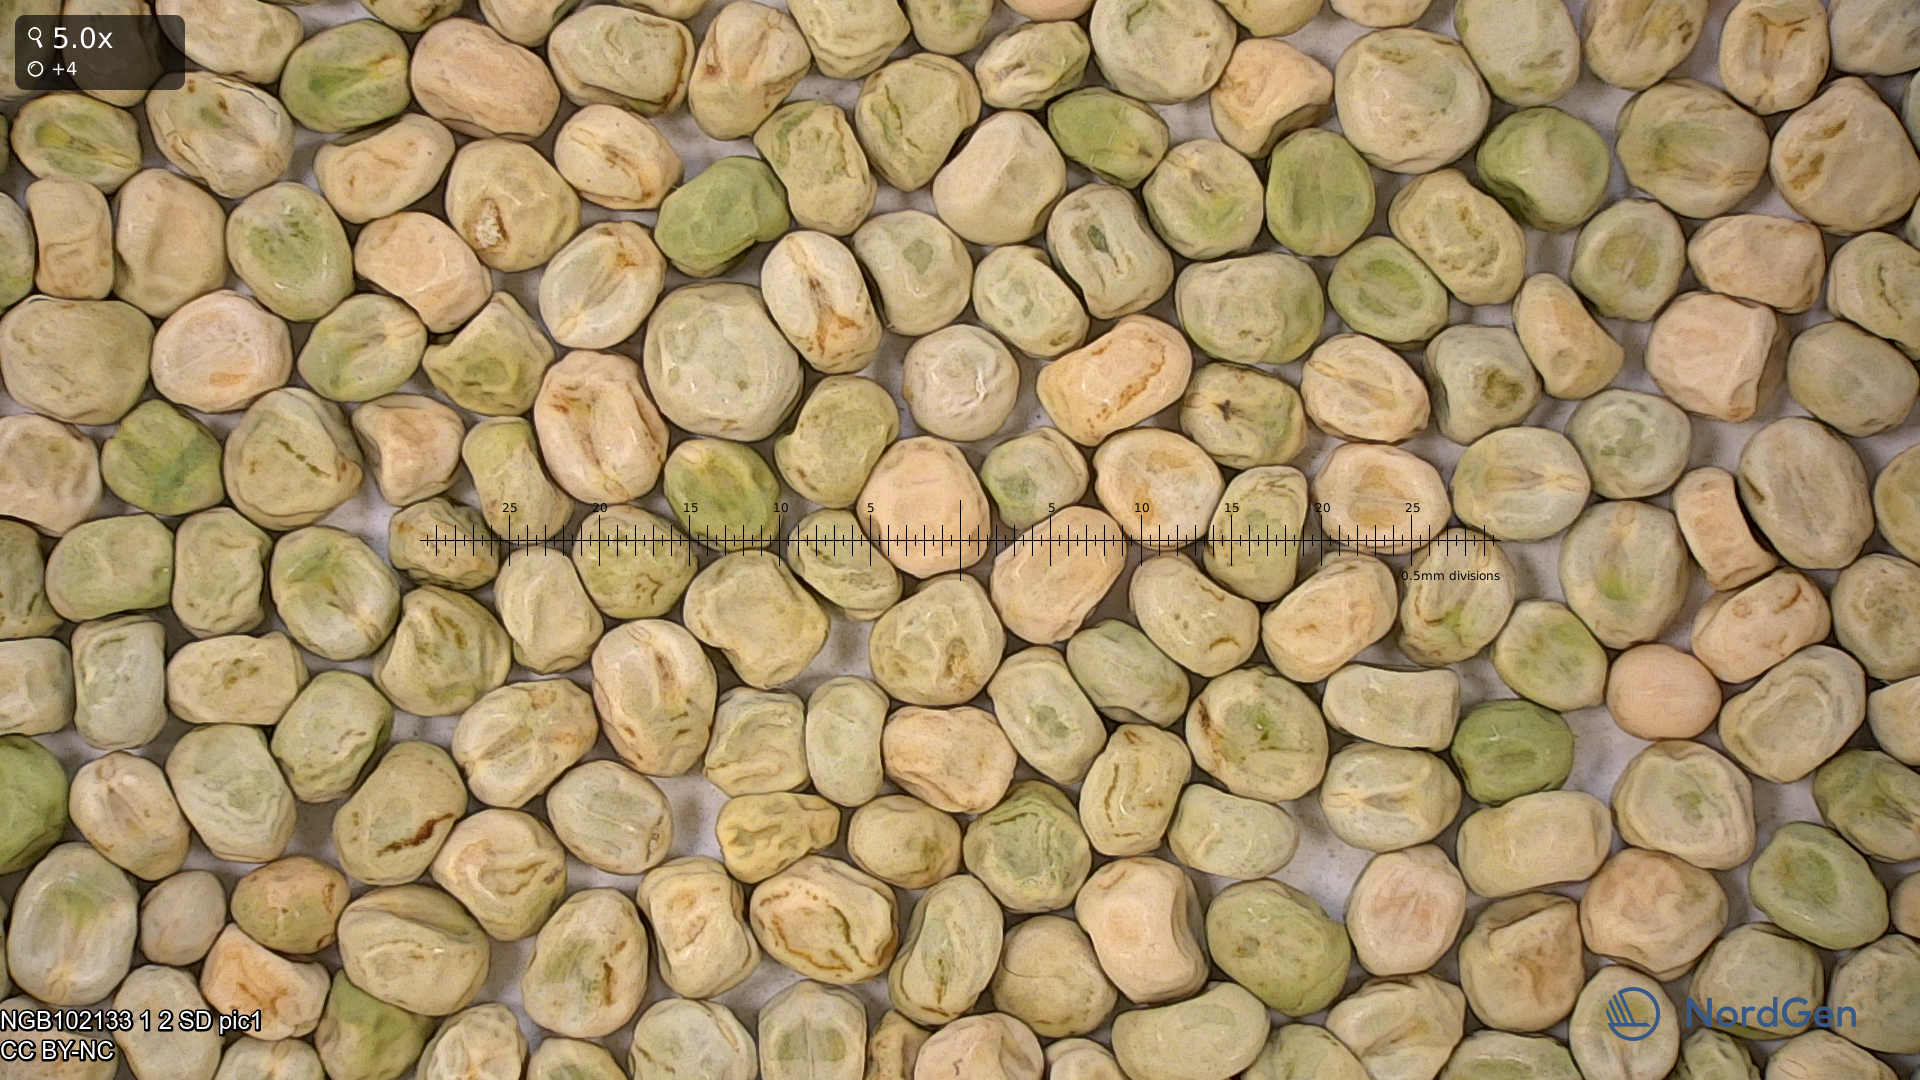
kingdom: Plantae
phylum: Tracheophyta
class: Magnoliopsida
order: Fabales
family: Fabaceae
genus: Lathyrus
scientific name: Lathyrus oleraceus
